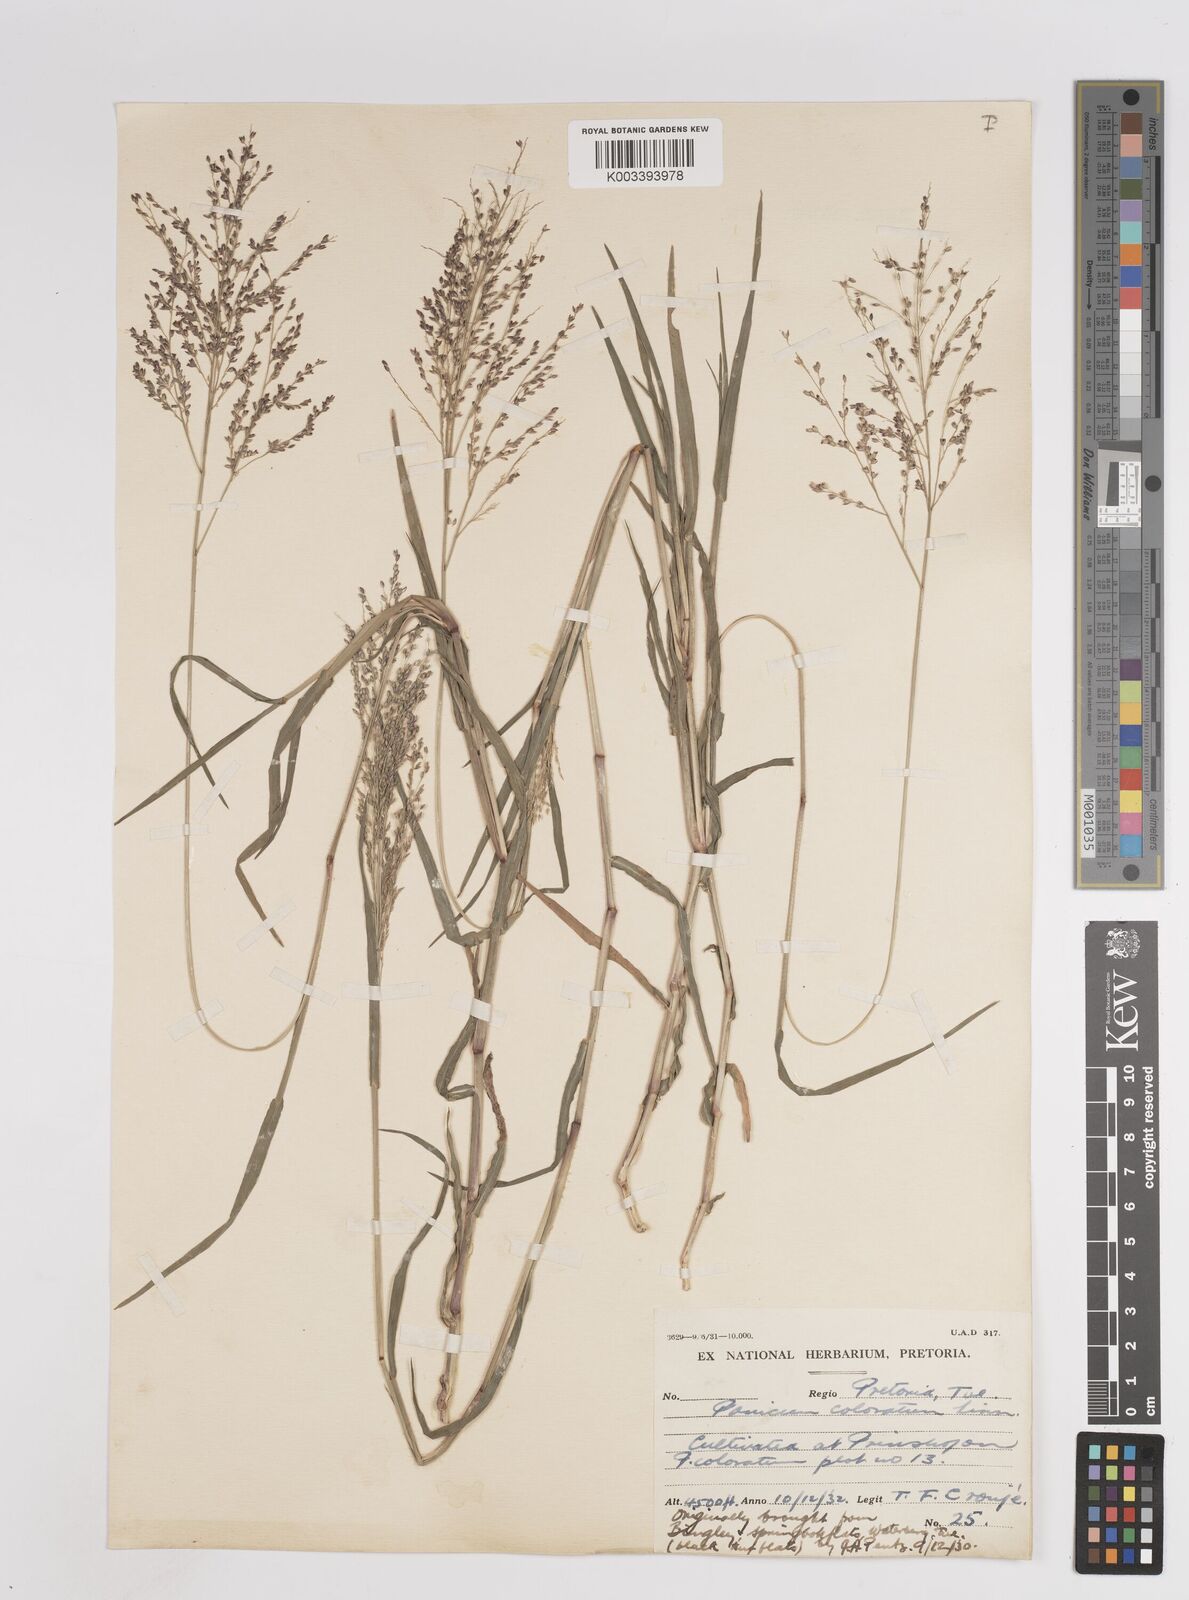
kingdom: Plantae
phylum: Tracheophyta
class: Liliopsida
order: Poales
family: Poaceae
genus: Panicum
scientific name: Panicum coloratum
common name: Kleingrass
